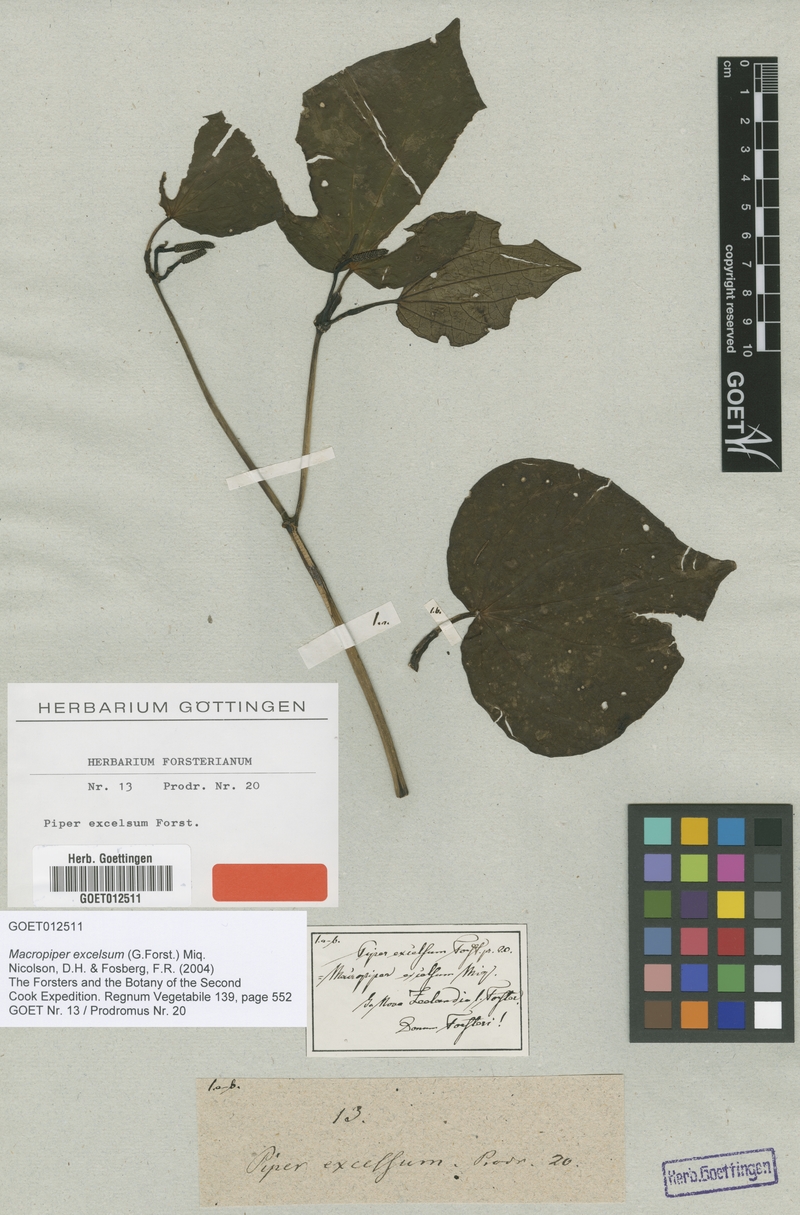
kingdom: Plantae
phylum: Tracheophyta
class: Magnoliopsida
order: Piperales
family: Piperaceae
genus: Macropiper
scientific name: Macropiper excelsum
